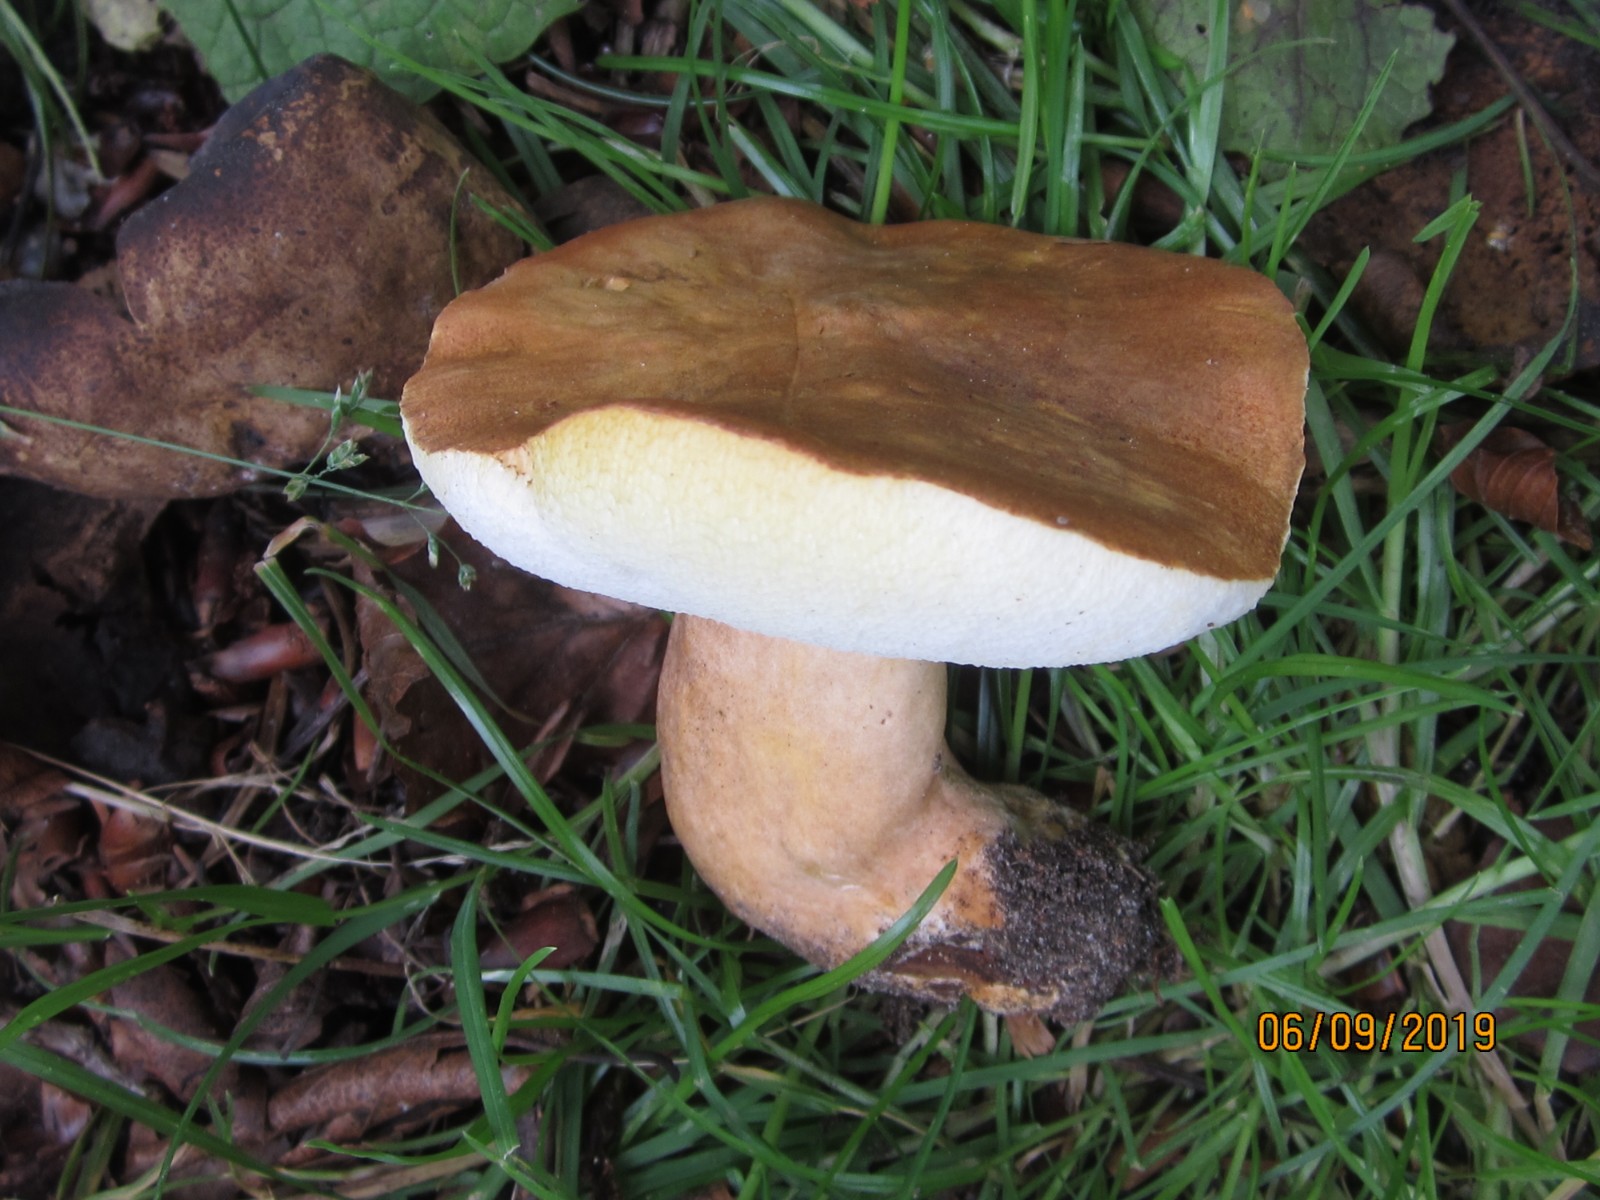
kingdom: Fungi
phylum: Basidiomycota
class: Agaricomycetes
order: Boletales
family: Gyroporaceae
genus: Gyroporus
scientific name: Gyroporus castaneus
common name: kastanie-kammerrørhat
